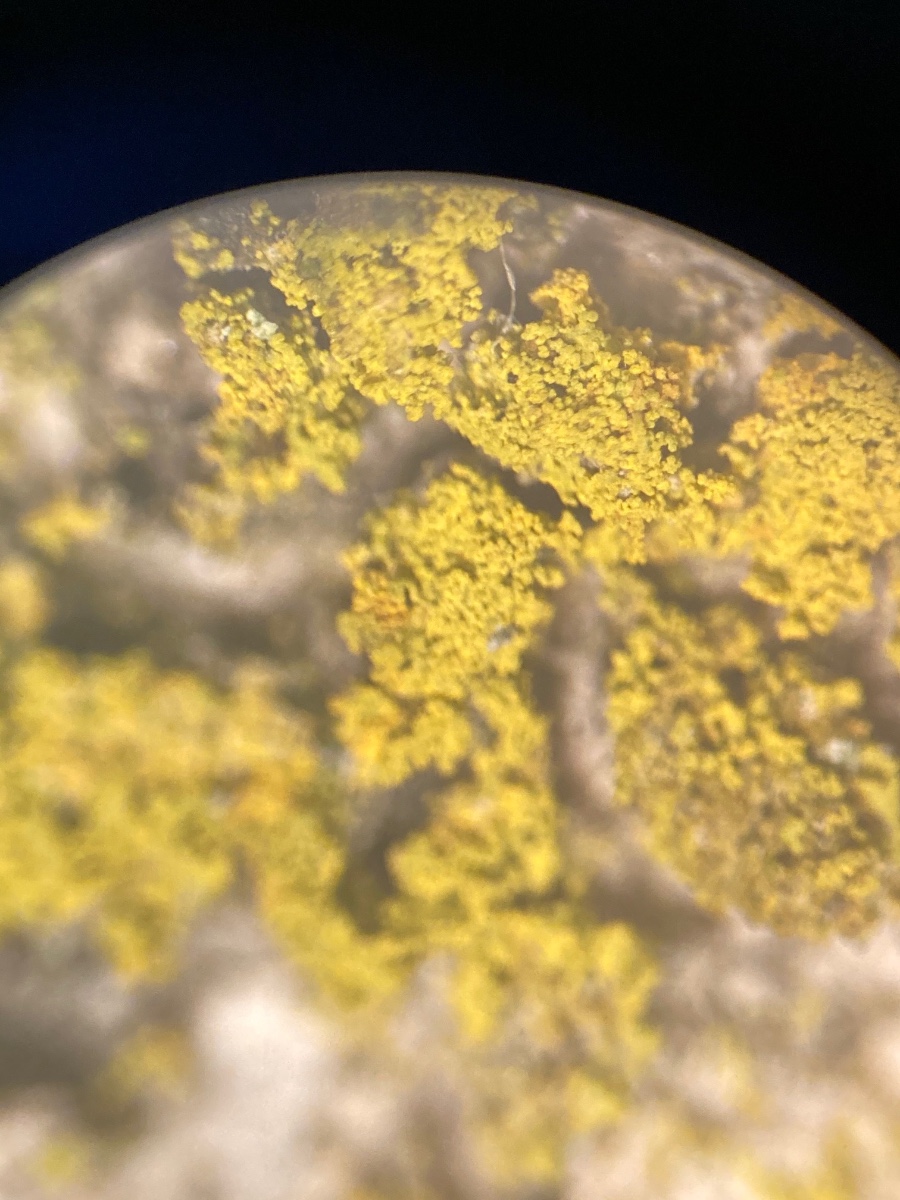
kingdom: Fungi
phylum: Ascomycota
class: Candelariomycetes
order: Candelariales
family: Candelariaceae
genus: Candelaria
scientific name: Candelaria pacifica
